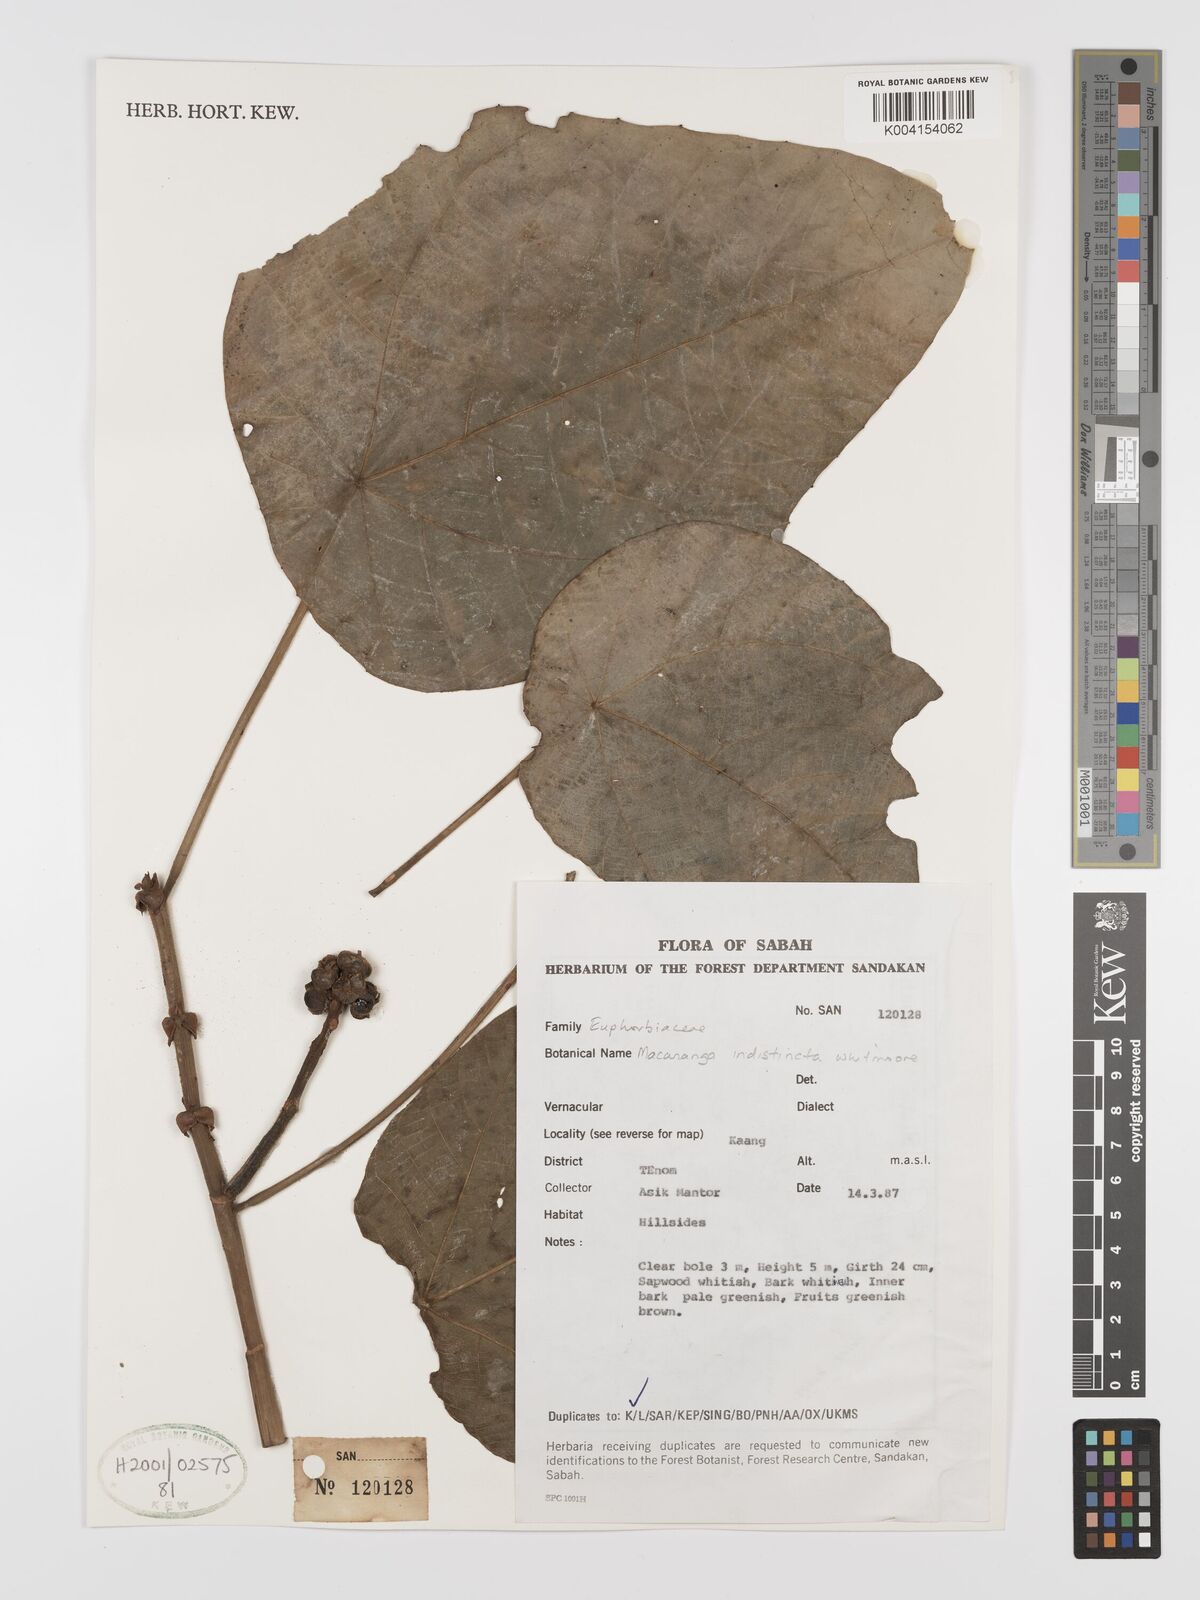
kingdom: Plantae
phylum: Tracheophyta
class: Magnoliopsida
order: Malpighiales
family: Euphorbiaceae
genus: Macaranga
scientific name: Macaranga indistincta
